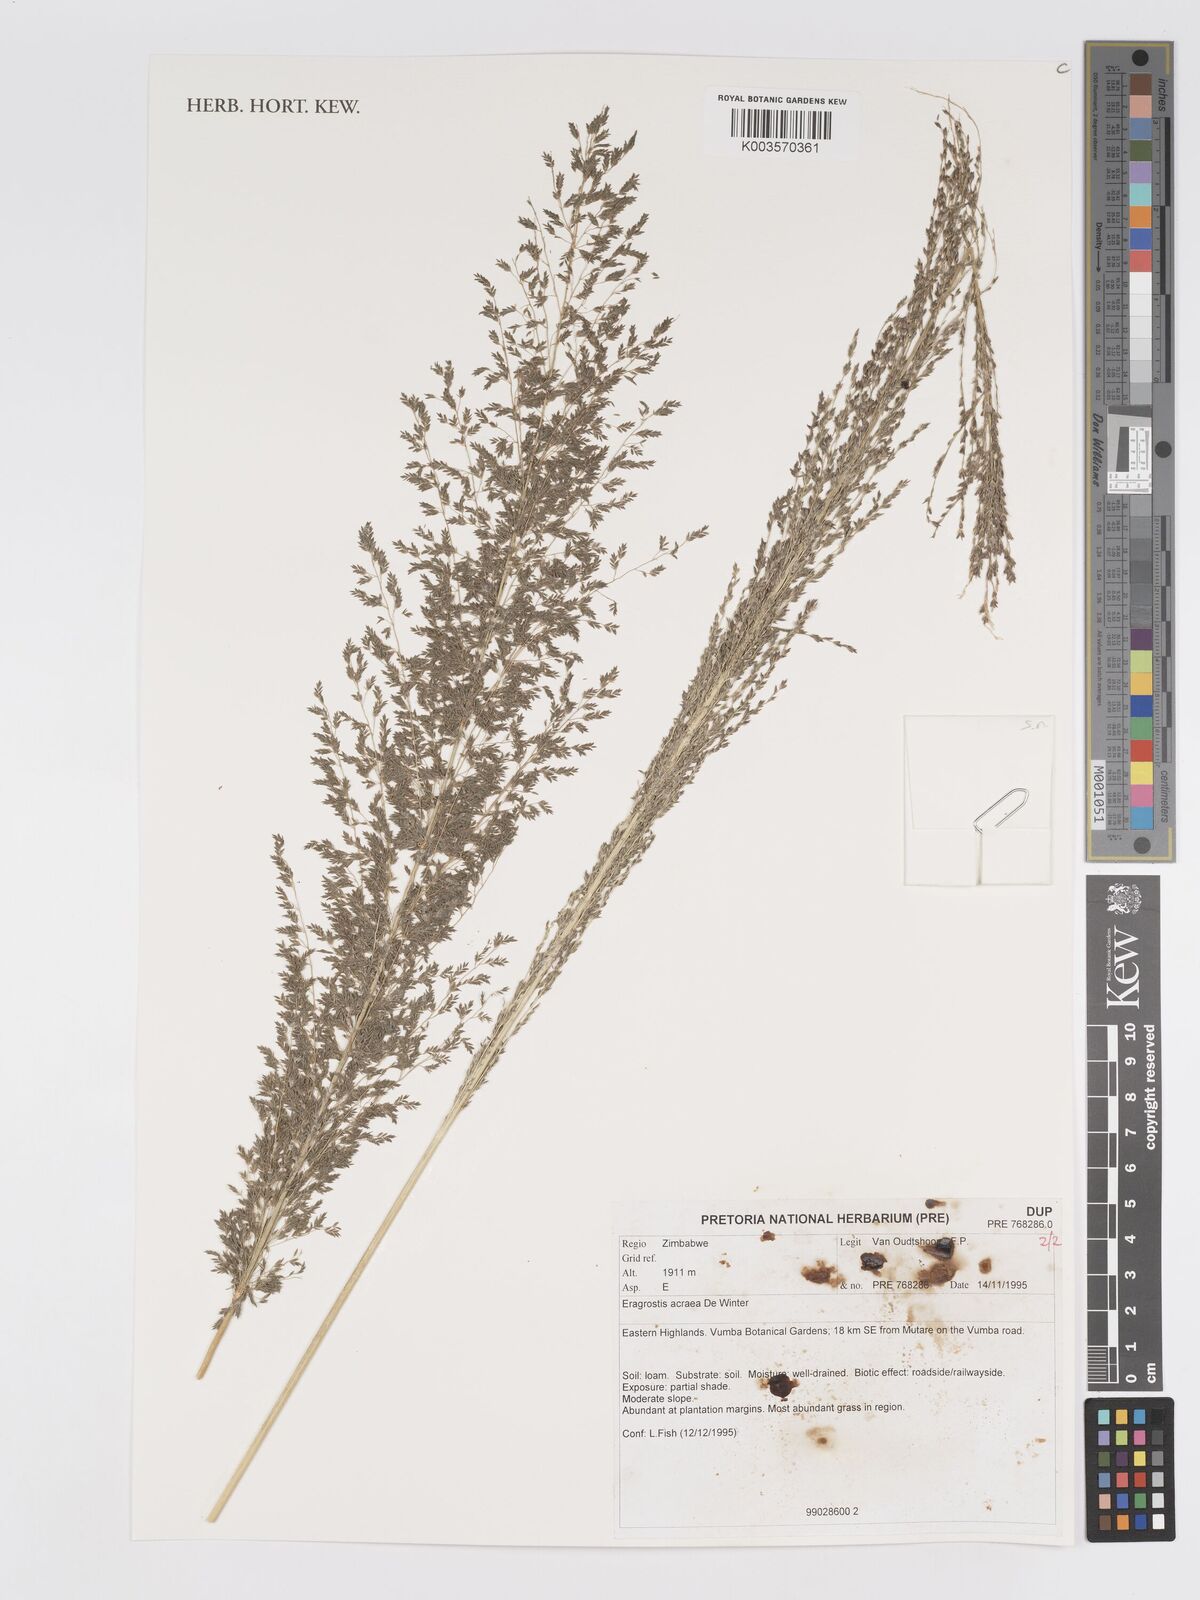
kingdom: Plantae
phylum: Tracheophyta
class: Liliopsida
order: Poales
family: Poaceae
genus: Eragrostis
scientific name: Eragrostis acraea
